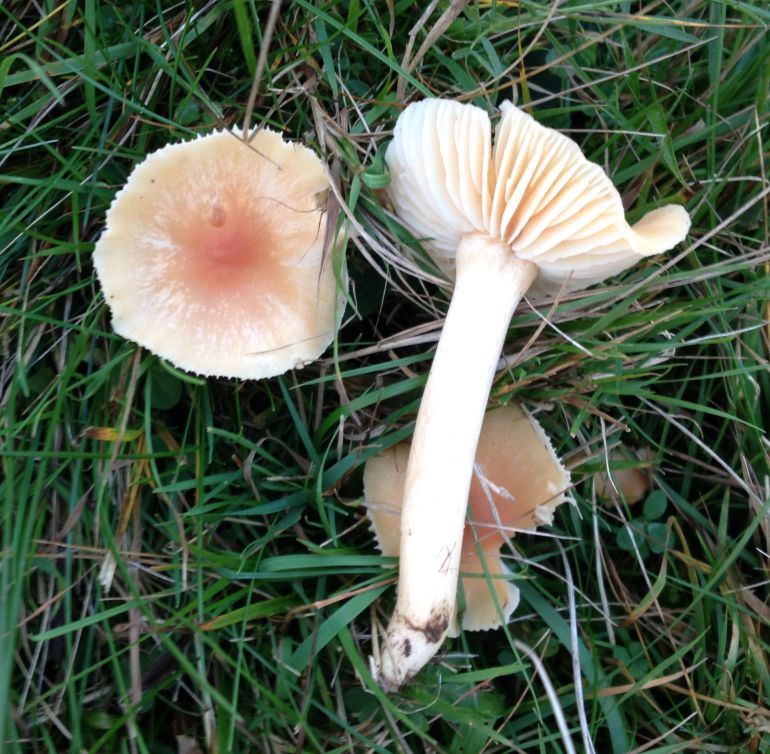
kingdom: Fungi
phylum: Basidiomycota
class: Agaricomycetes
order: Agaricales
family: Hygrophoraceae
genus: Cuphophyllus
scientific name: Cuphophyllus pratensis
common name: eng-vokshat
